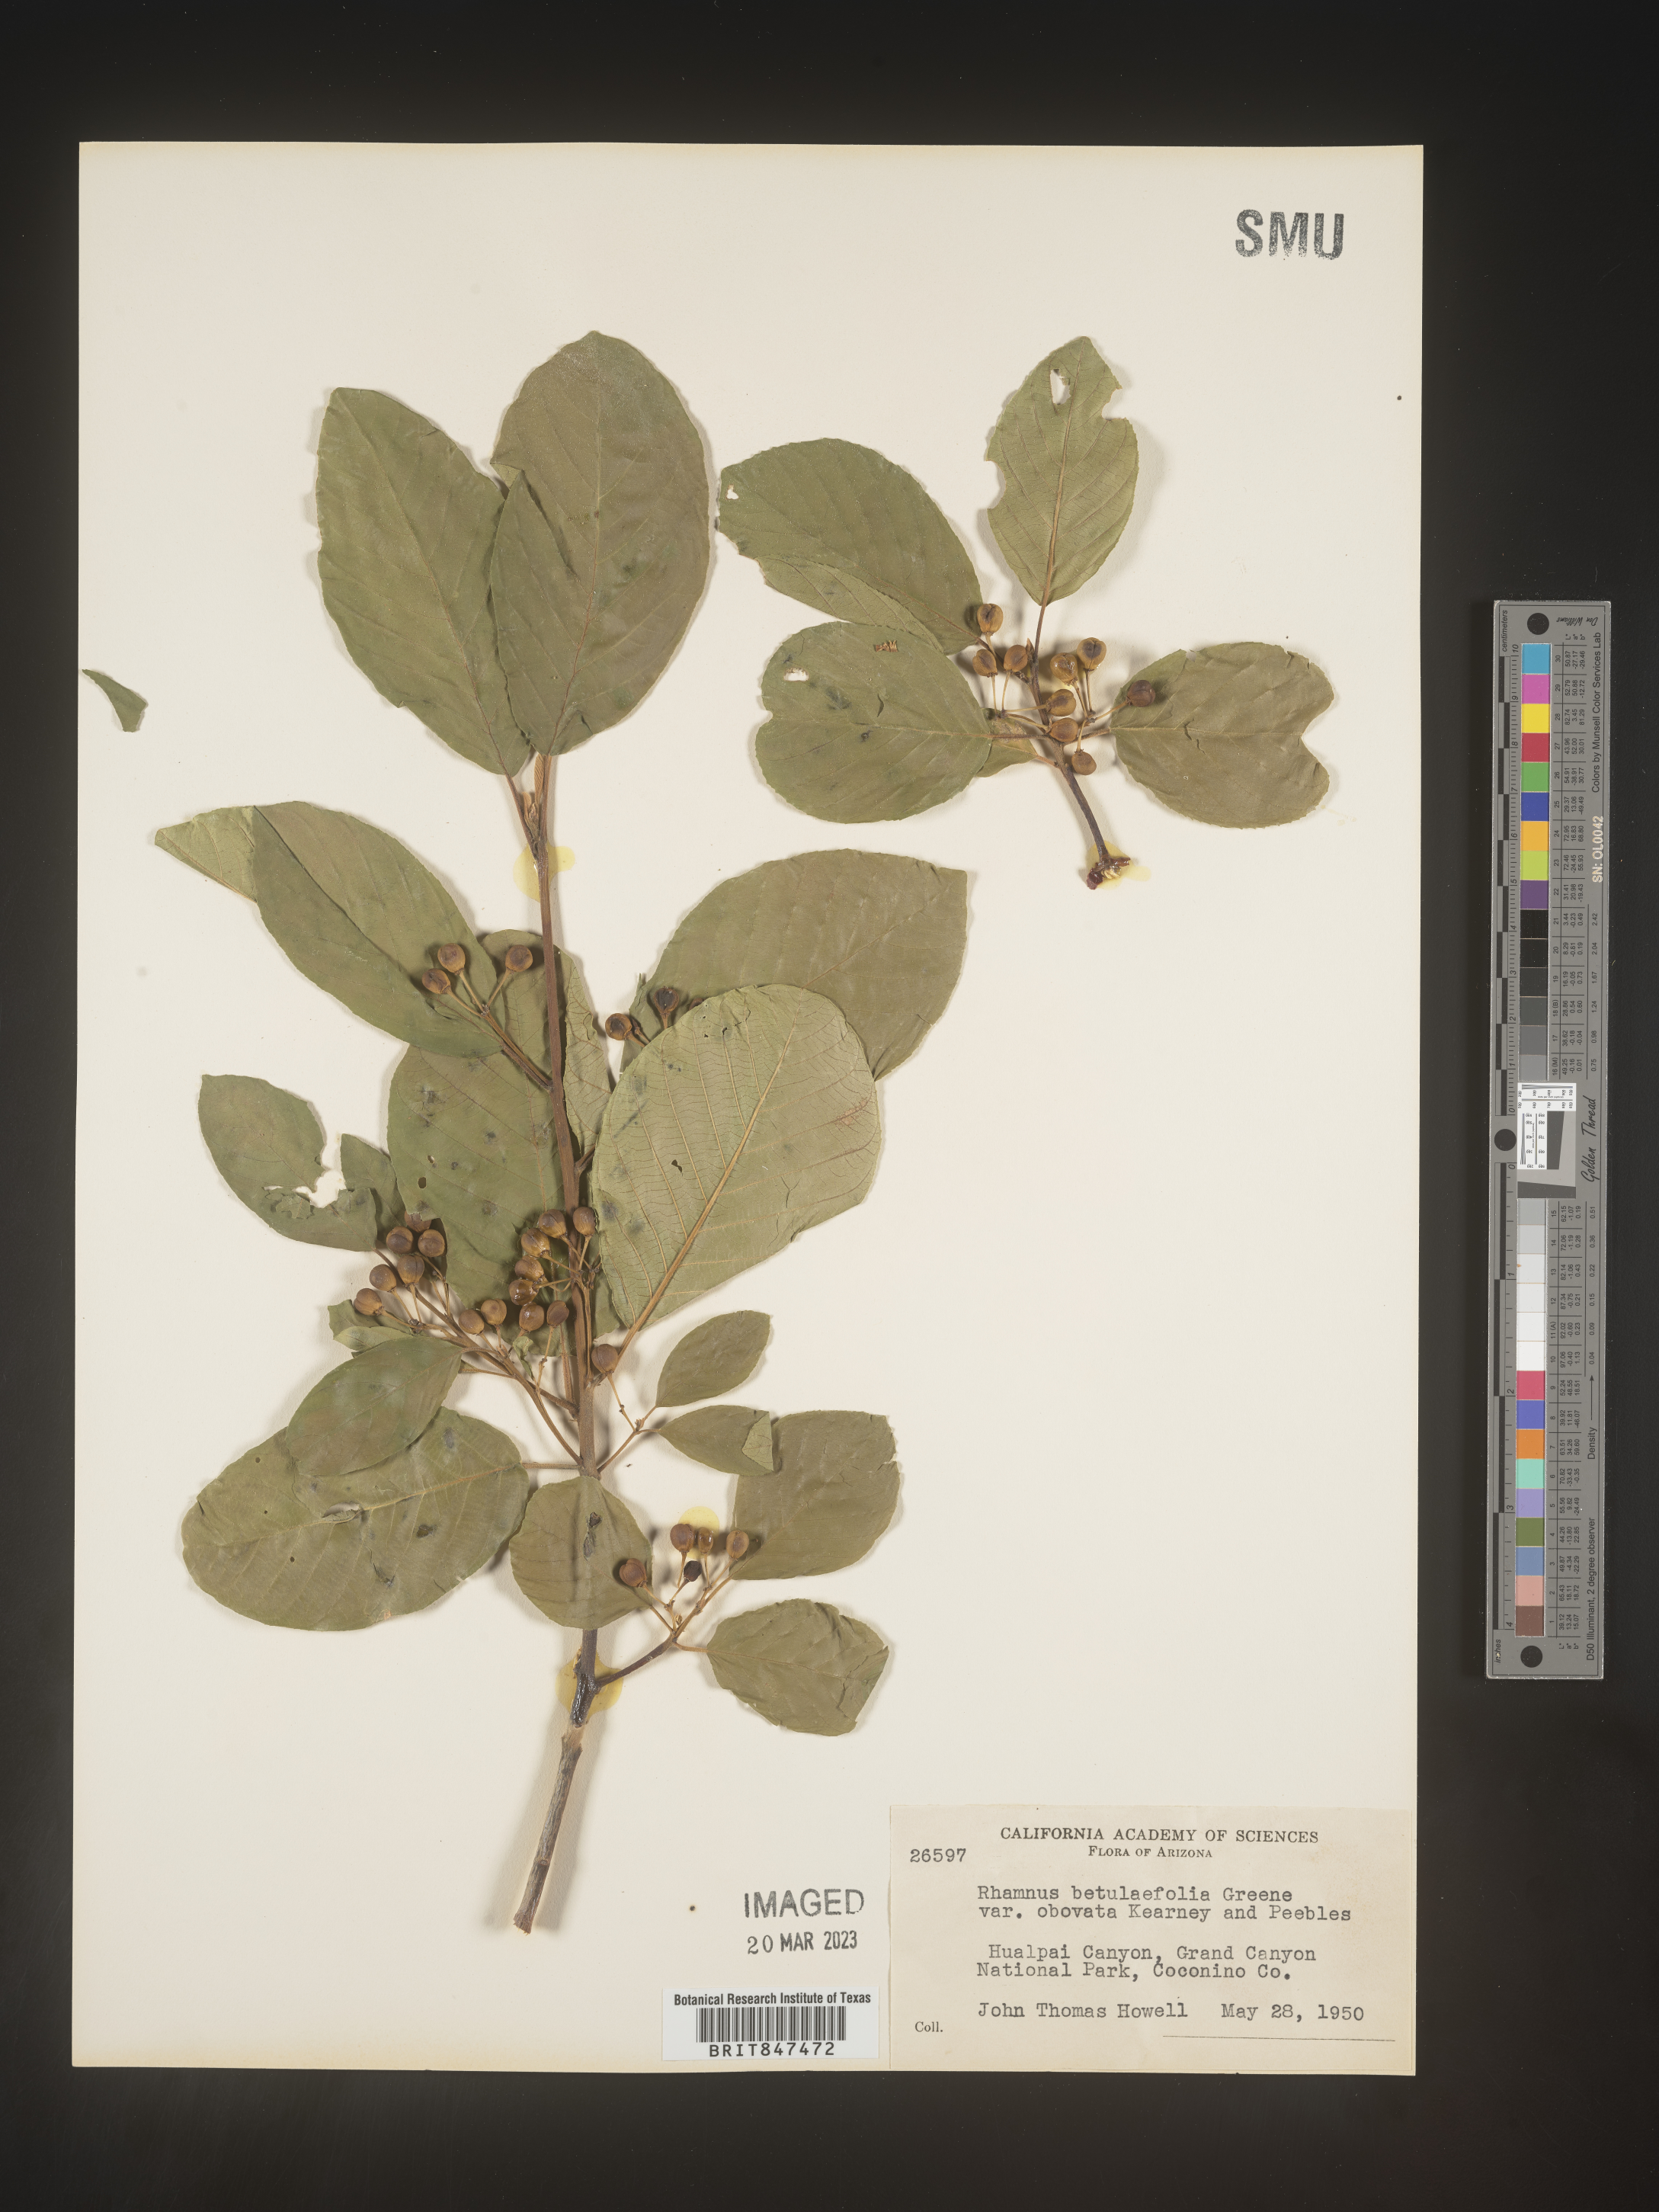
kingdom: Plantae
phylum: Tracheophyta
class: Magnoliopsida
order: Rosales
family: Rhamnaceae
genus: Frangula
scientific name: Frangula betulifolia
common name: Birch-leaf buckthorn
